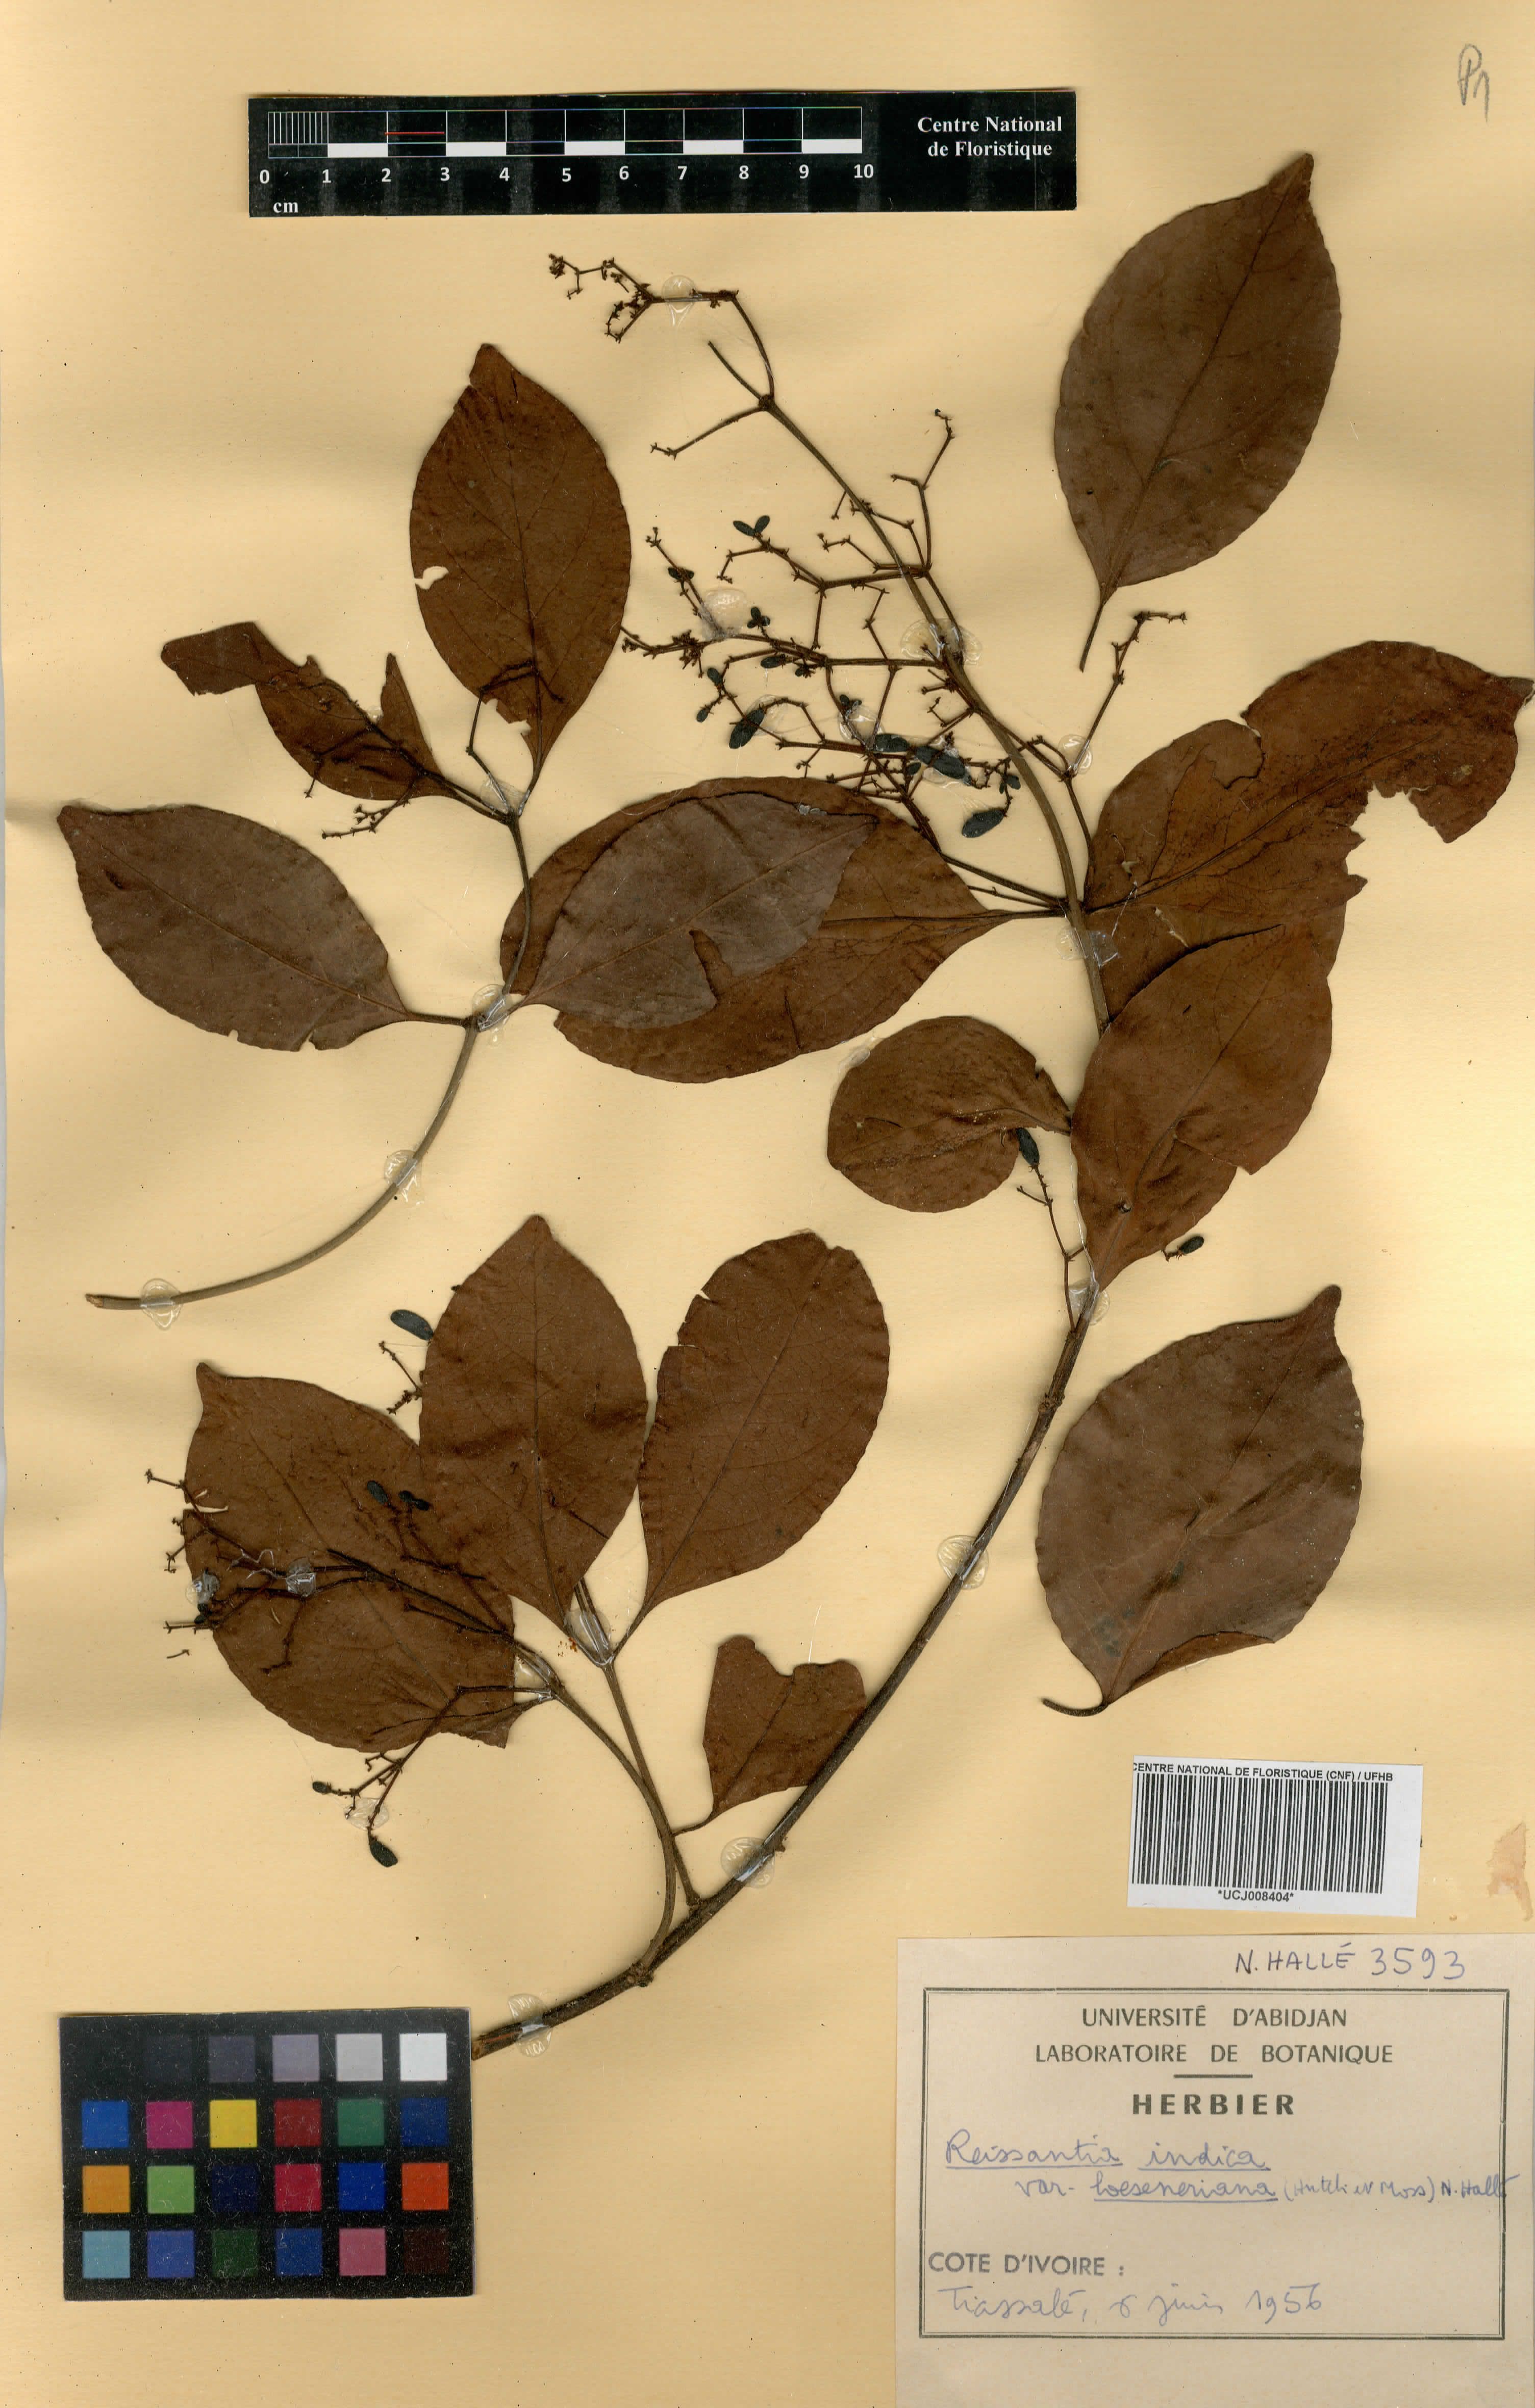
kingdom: Plantae
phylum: Tracheophyta
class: Magnoliopsida
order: Celastrales
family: Celastraceae
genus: Reissantia
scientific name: Reissantia indica
